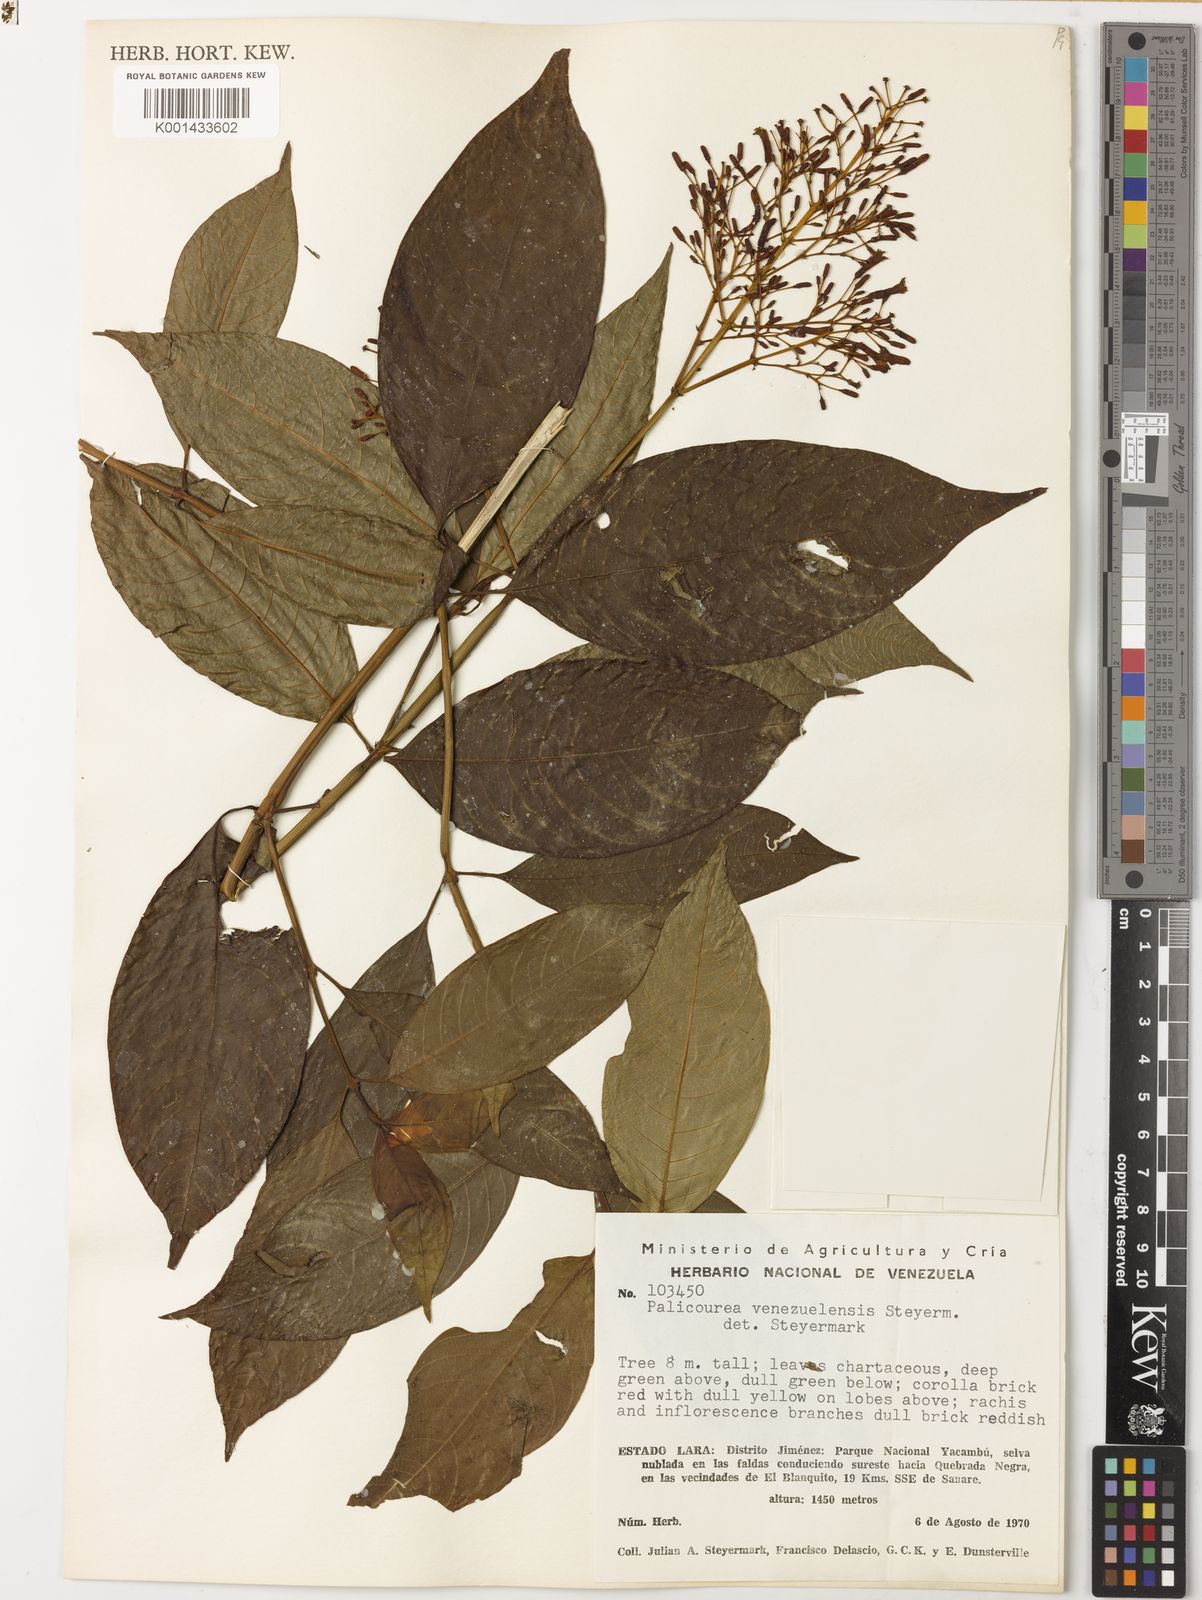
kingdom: Plantae
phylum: Tracheophyta
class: Magnoliopsida
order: Gentianales
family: Rubiaceae
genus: Palicourea
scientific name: Palicourea thyrsiflora
